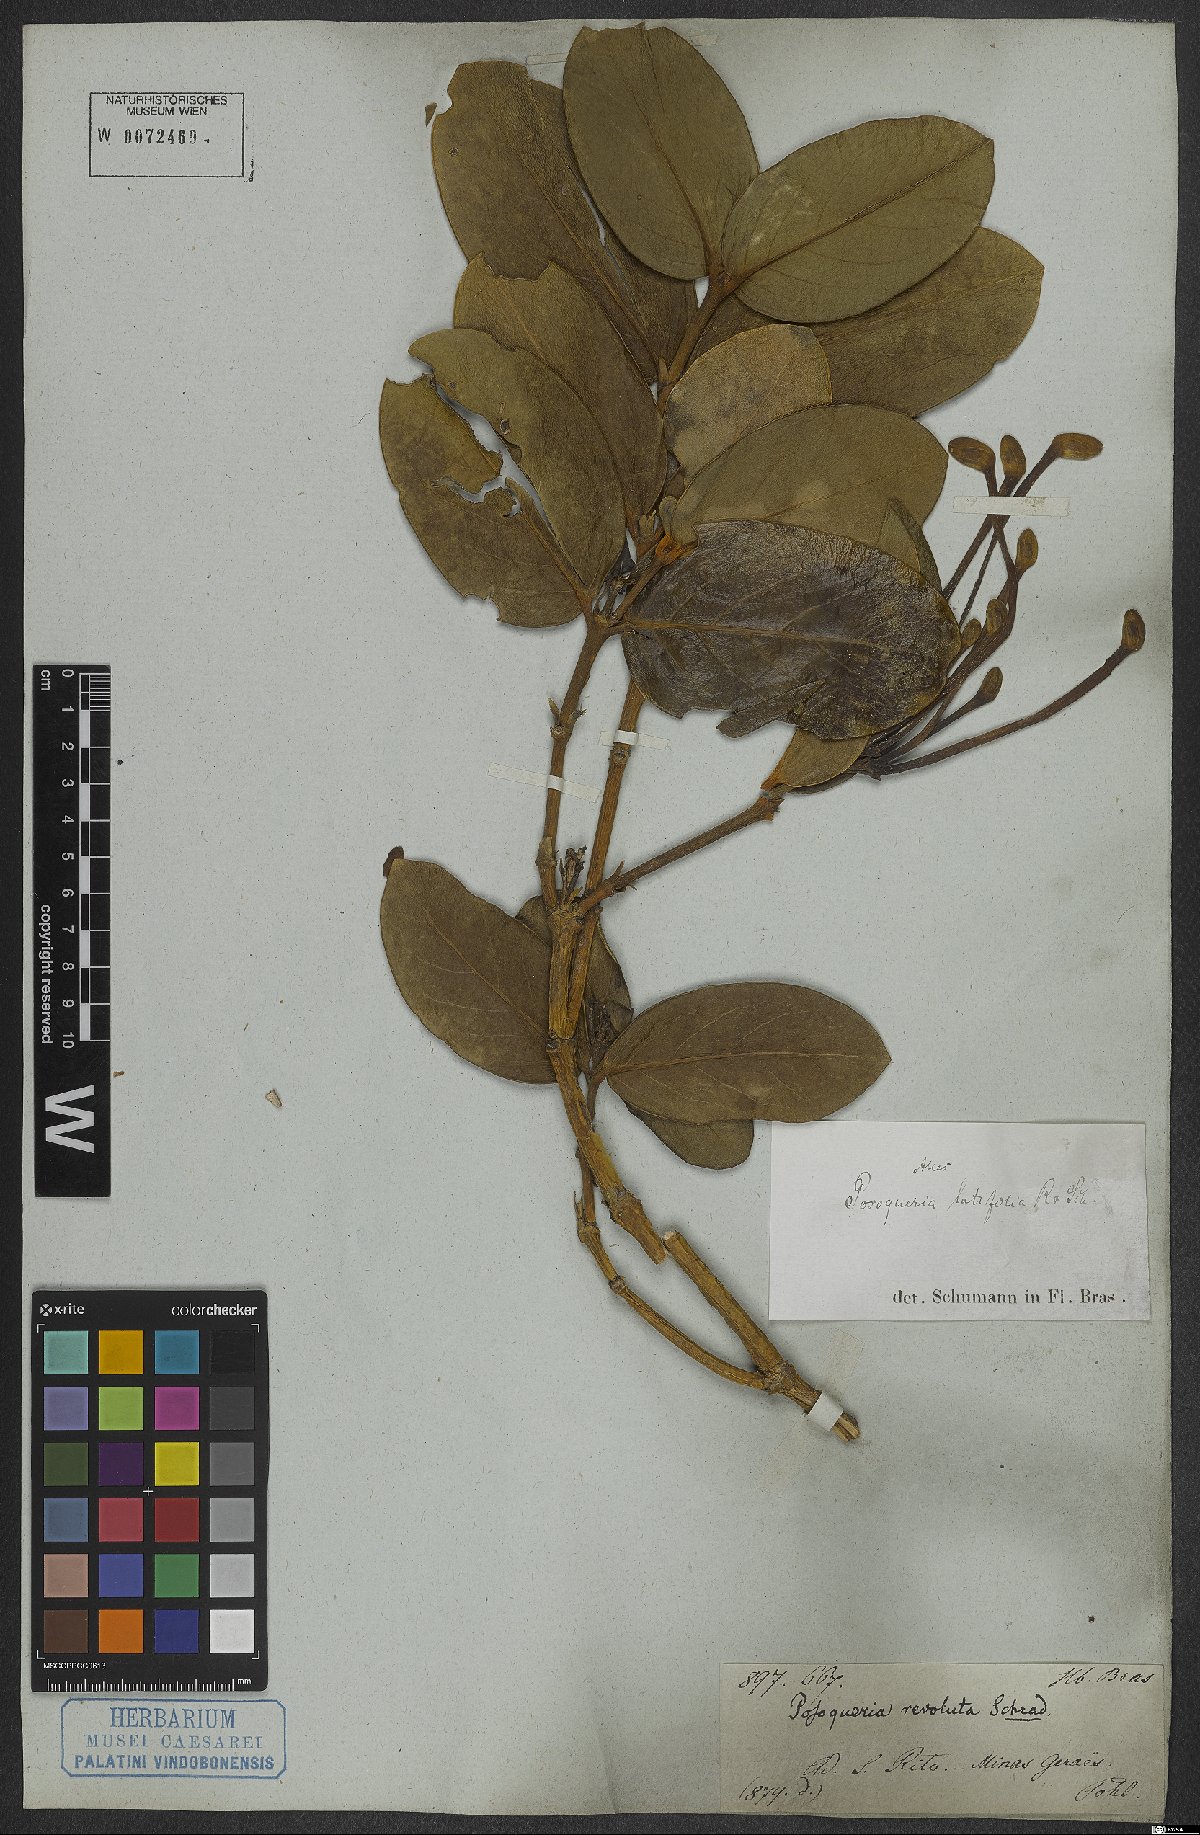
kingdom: Plantae
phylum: Tracheophyta
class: Magnoliopsida
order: Gentianales
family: Rubiaceae
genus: Posoqueria
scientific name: Posoqueria latifolia
